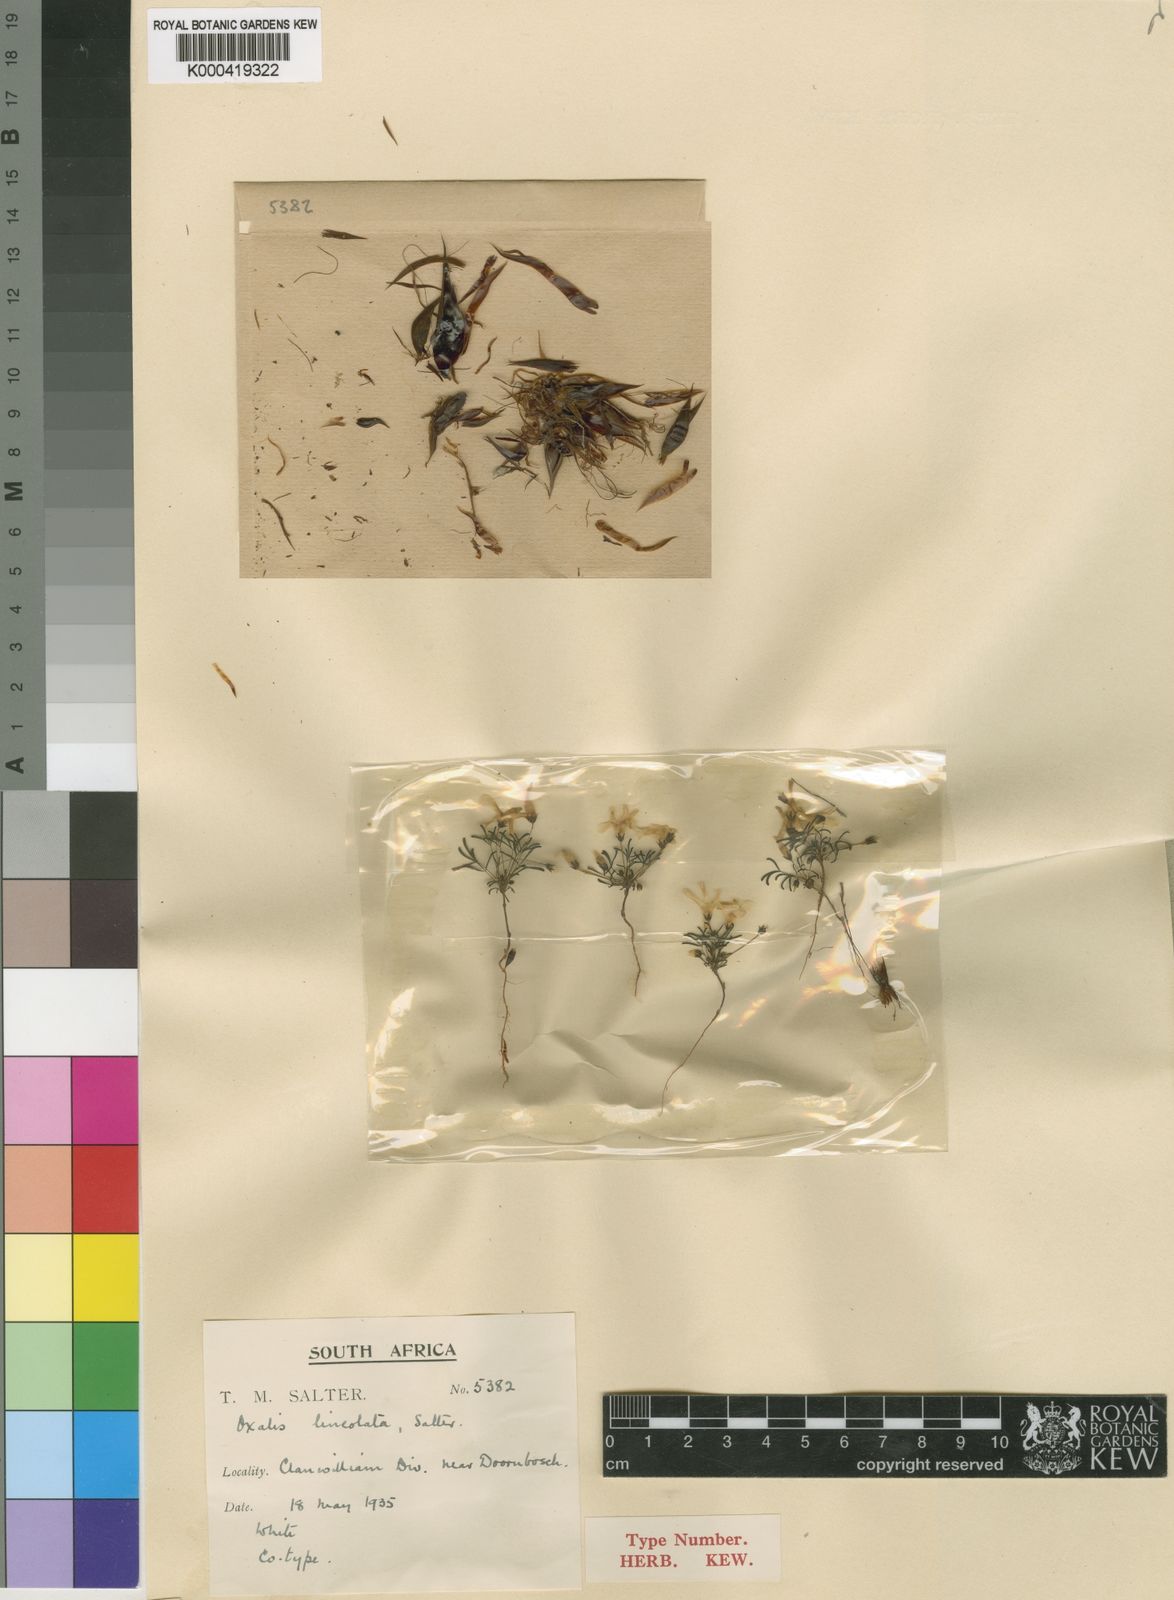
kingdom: Plantae
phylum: Tracheophyta
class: Magnoliopsida
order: Oxalidales
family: Oxalidaceae
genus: Oxalis
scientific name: Oxalis lineolata
